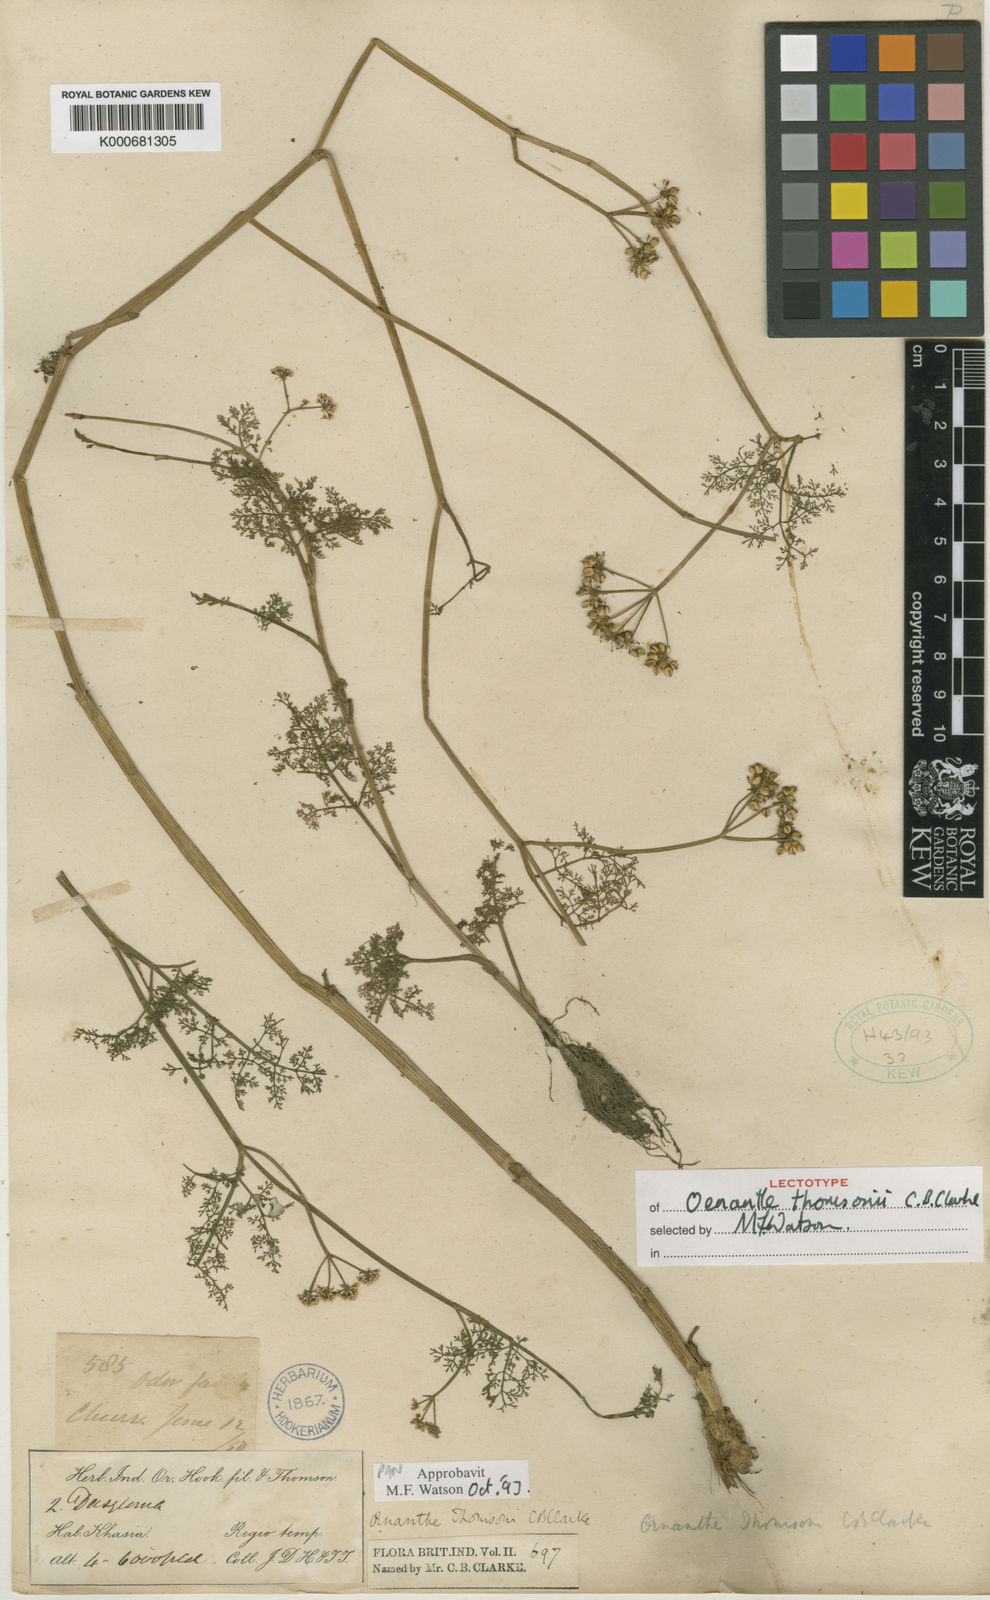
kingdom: Plantae
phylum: Tracheophyta
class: Magnoliopsida
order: Apiales
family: Apiaceae
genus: Oenanthe
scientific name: Oenanthe thomsonii
